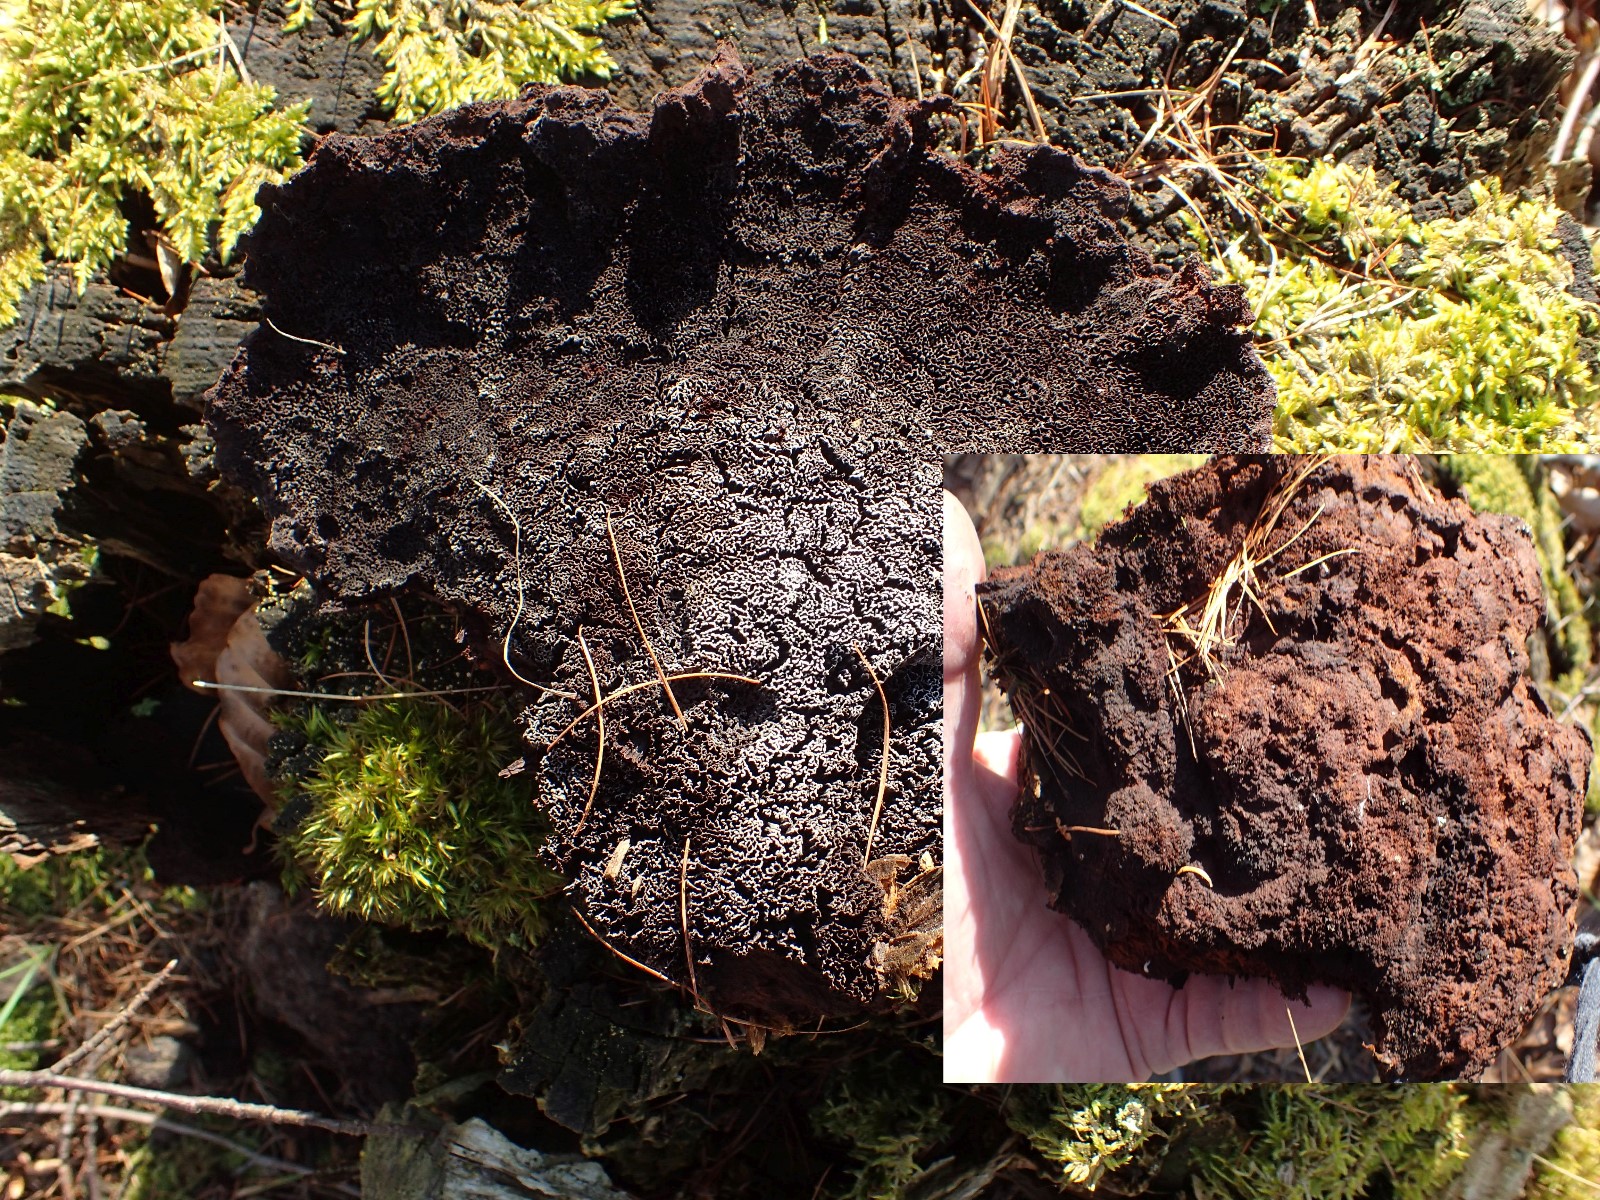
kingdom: Fungi
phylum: Basidiomycota
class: Agaricomycetes
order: Polyporales
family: Laetiporaceae
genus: Phaeolus
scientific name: Phaeolus schweinitzii
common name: brunporesvamp
